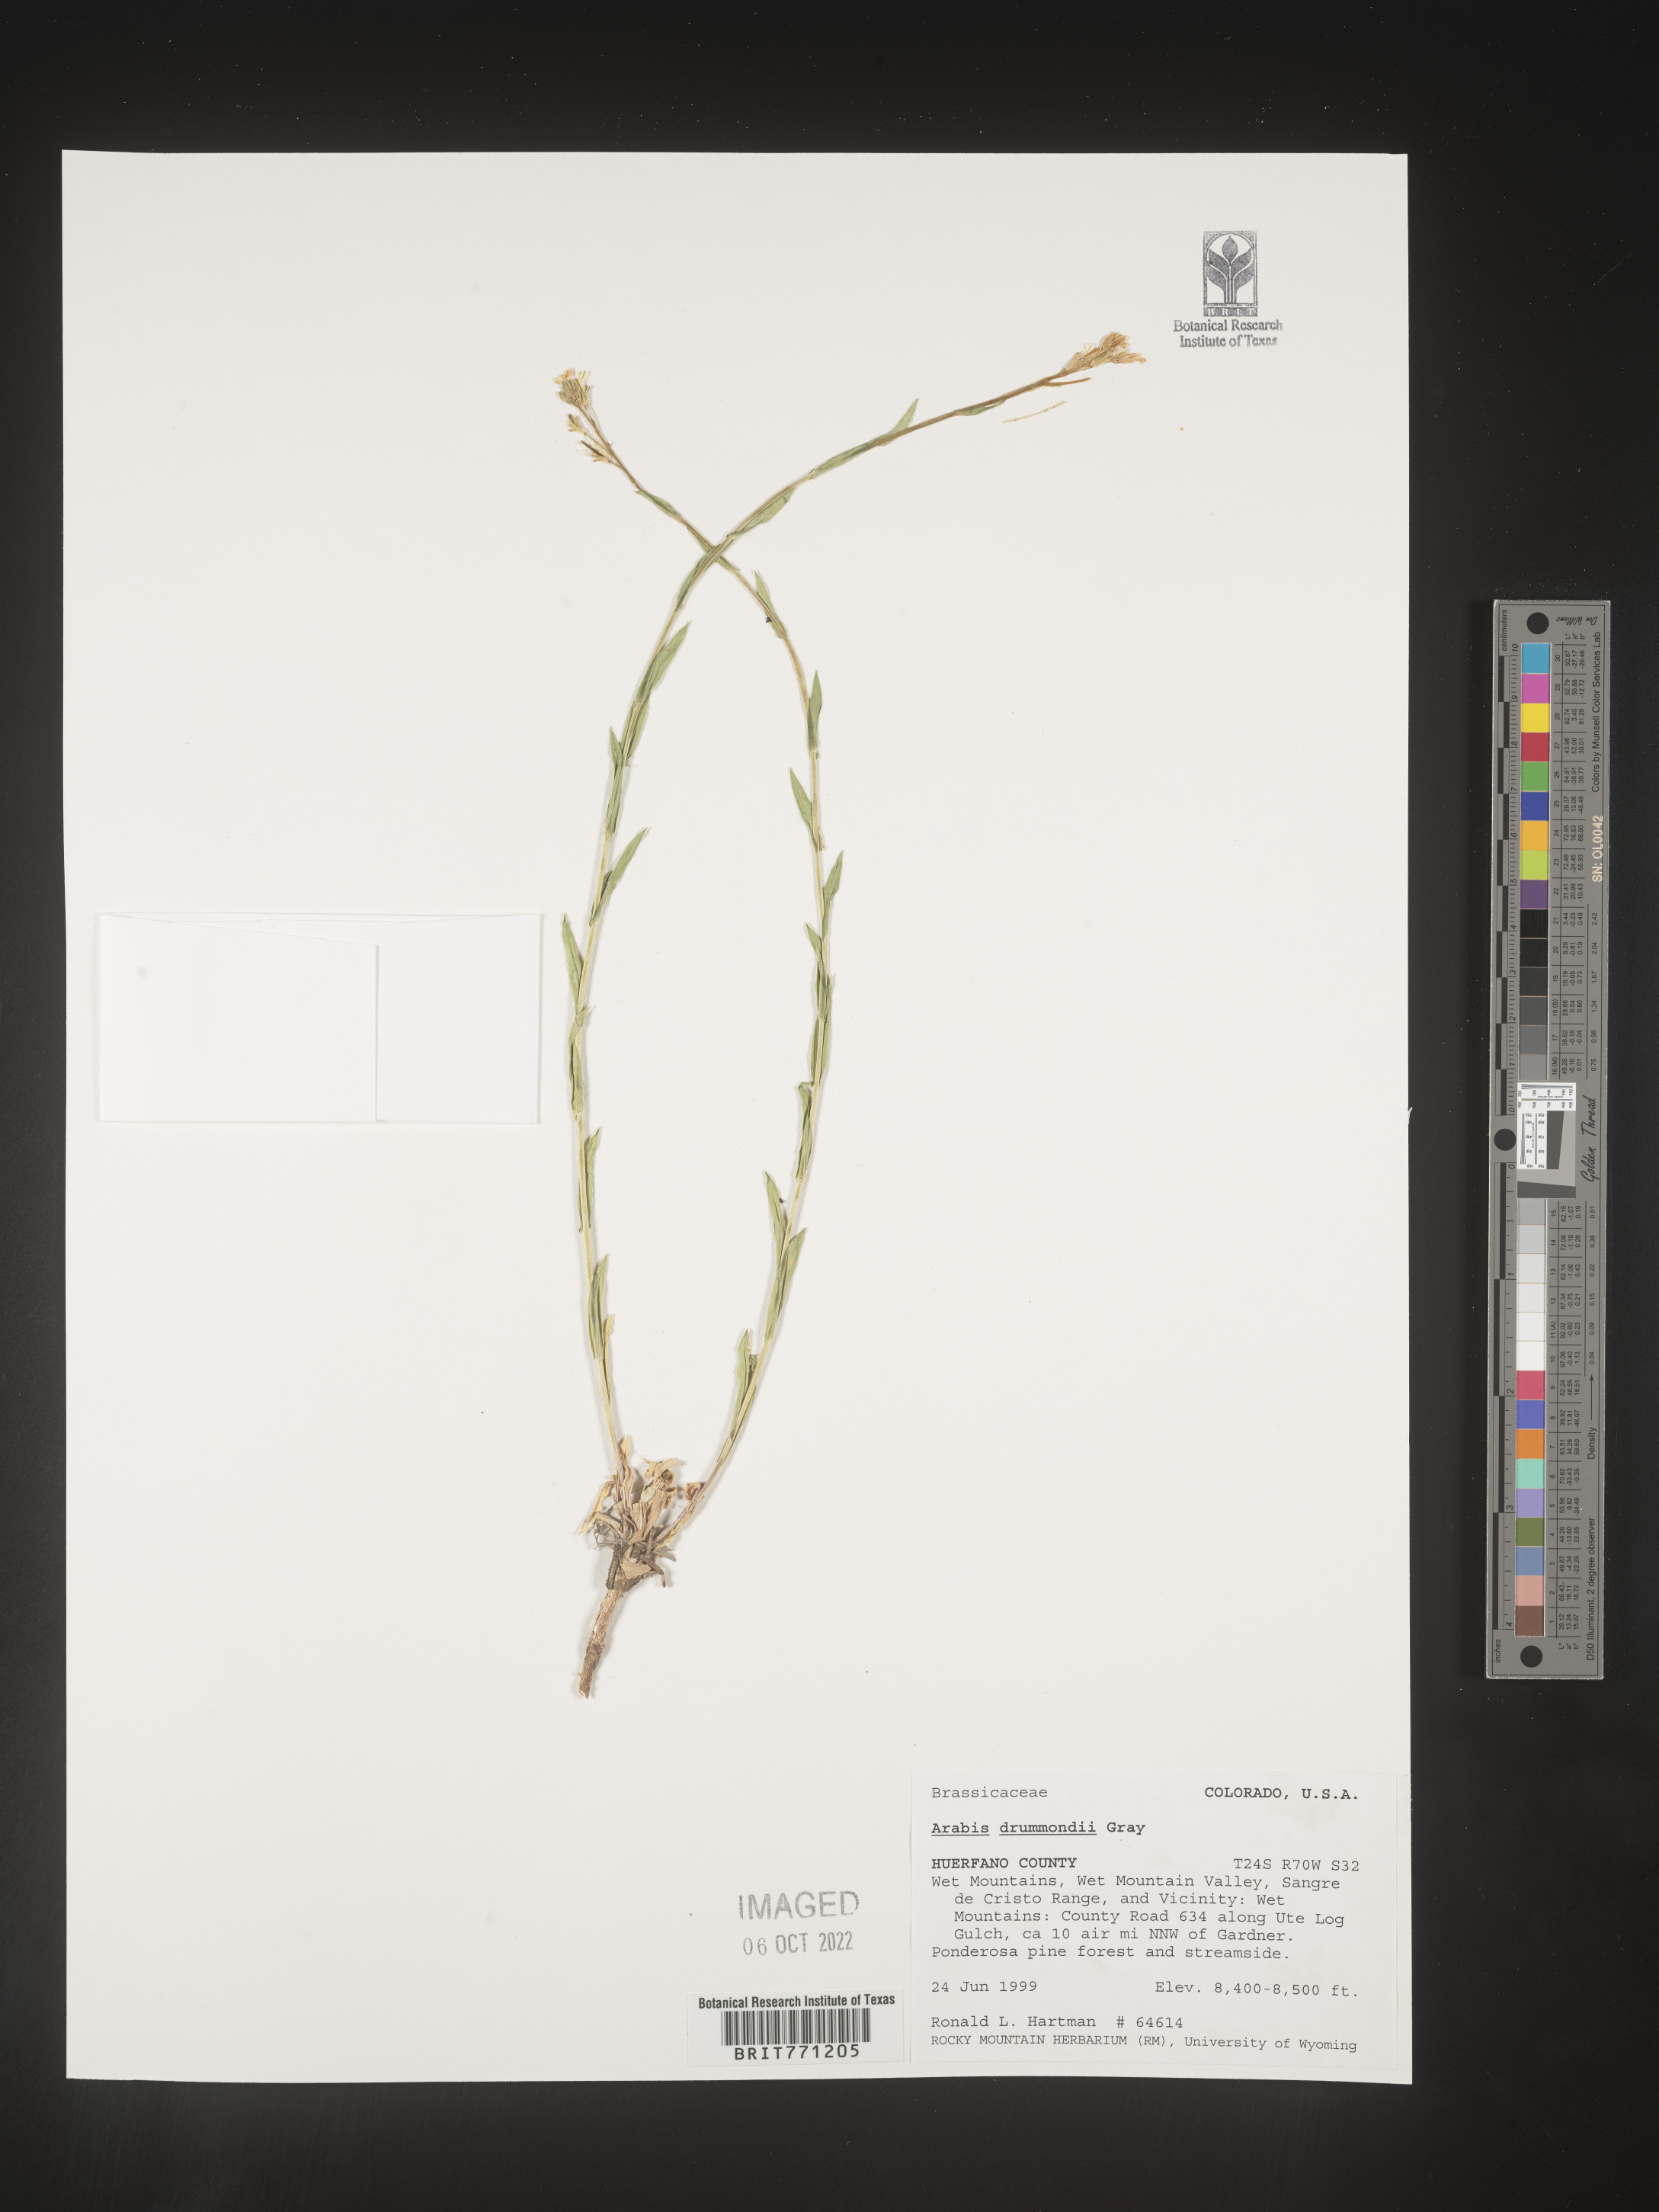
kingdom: Plantae
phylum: Tracheophyta
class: Magnoliopsida
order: Brassicales
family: Brassicaceae
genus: Boechera
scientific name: Boechera stricta
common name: Canadian rockcress
